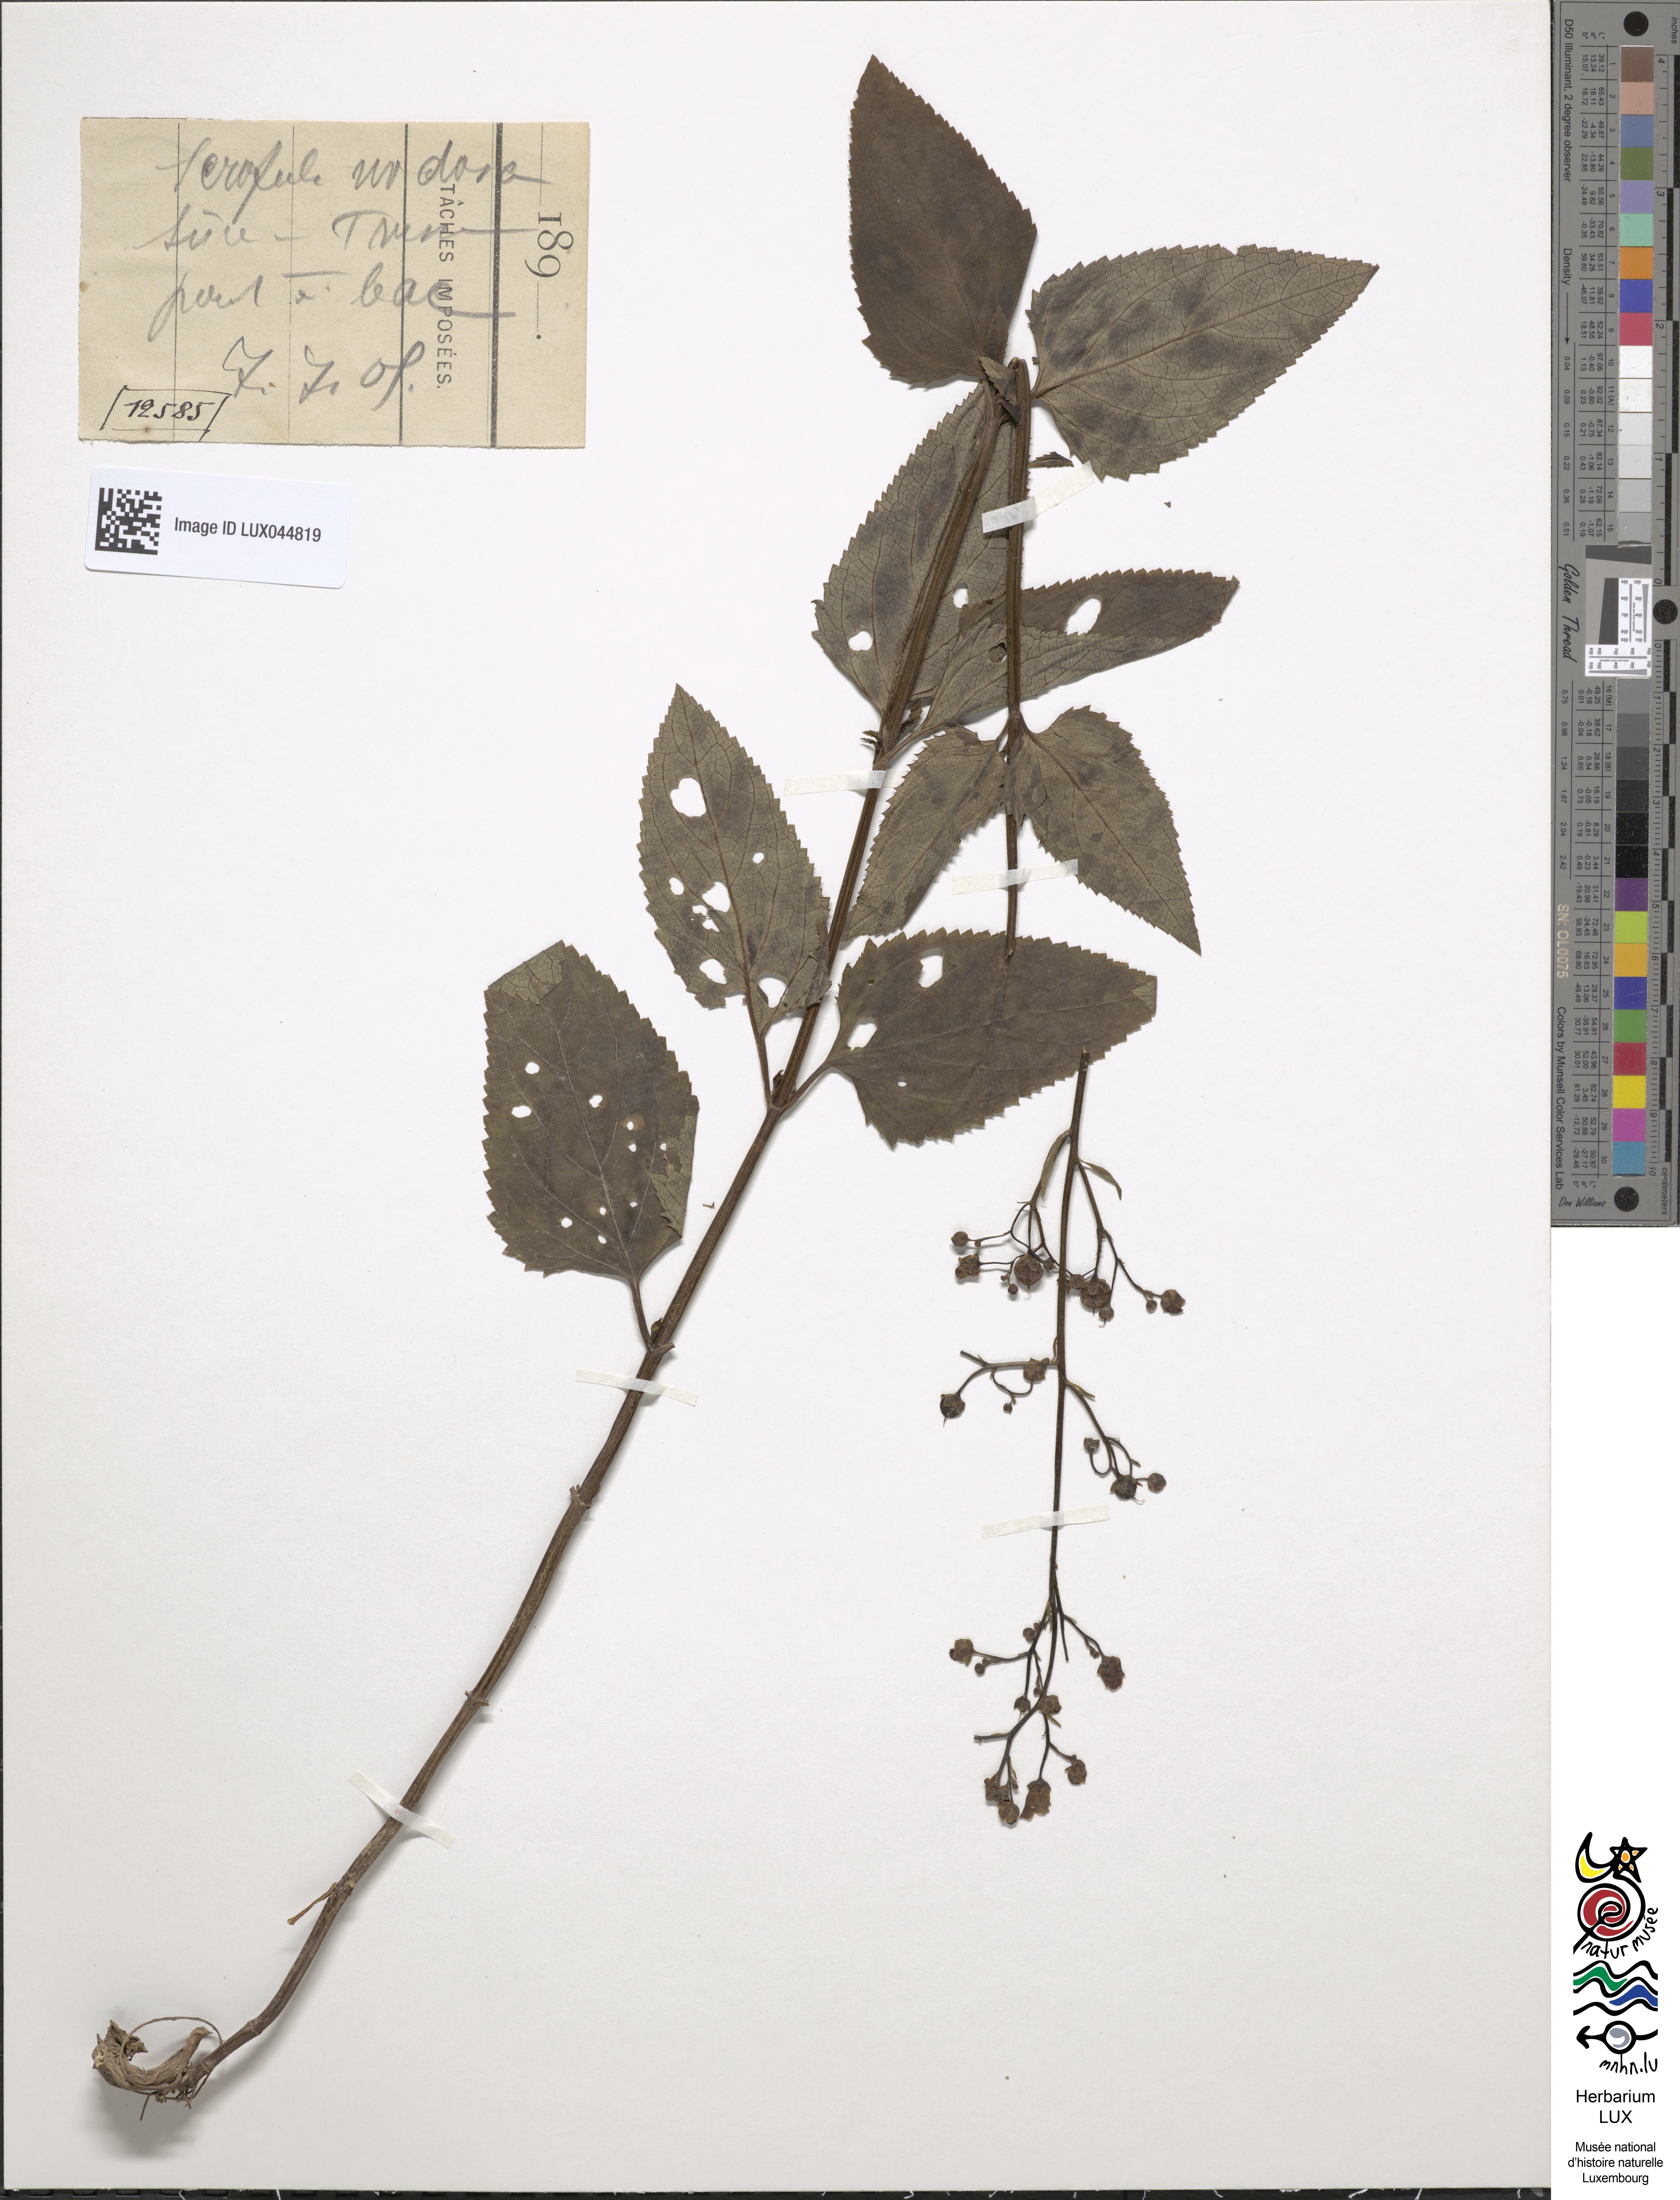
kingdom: Plantae
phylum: Tracheophyta
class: Magnoliopsida
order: Lamiales
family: Scrophulariaceae
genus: Scrophularia
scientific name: Scrophularia nodosa
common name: Common figwort
